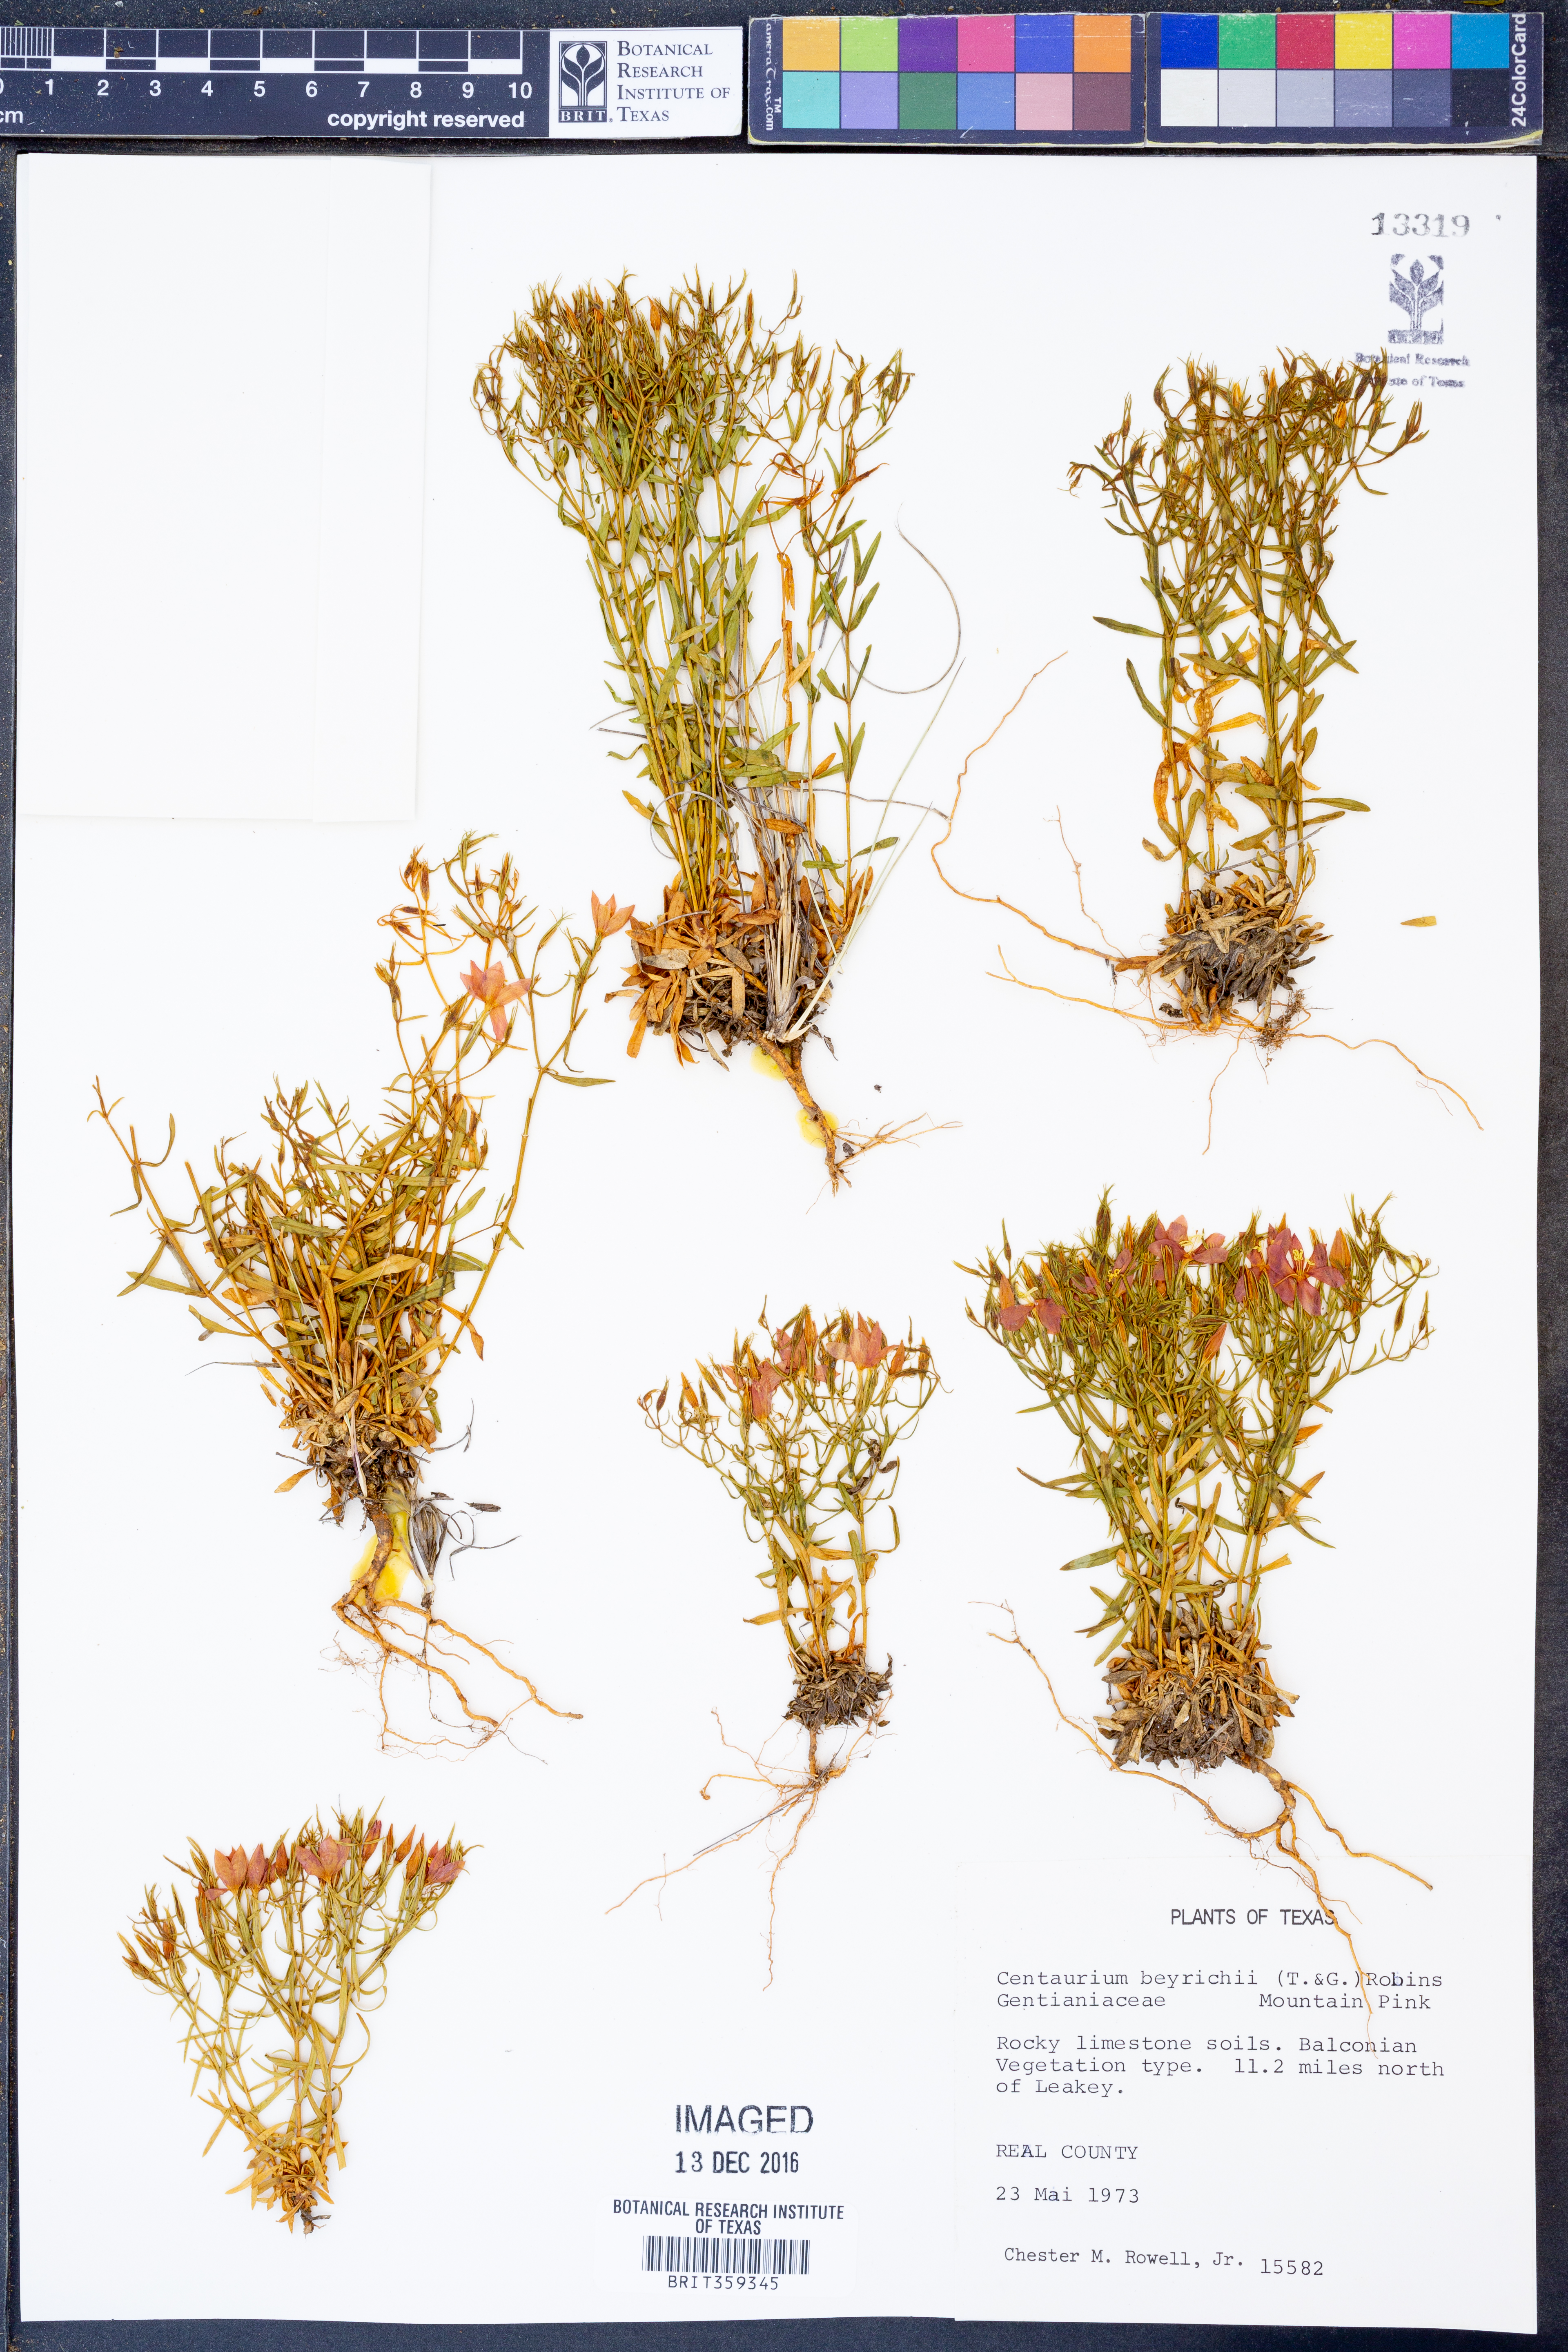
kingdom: Plantae
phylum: Tracheophyta
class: Magnoliopsida
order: Gentianales
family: Gentianaceae
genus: Zeltnera
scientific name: Zeltnera beyrichii
